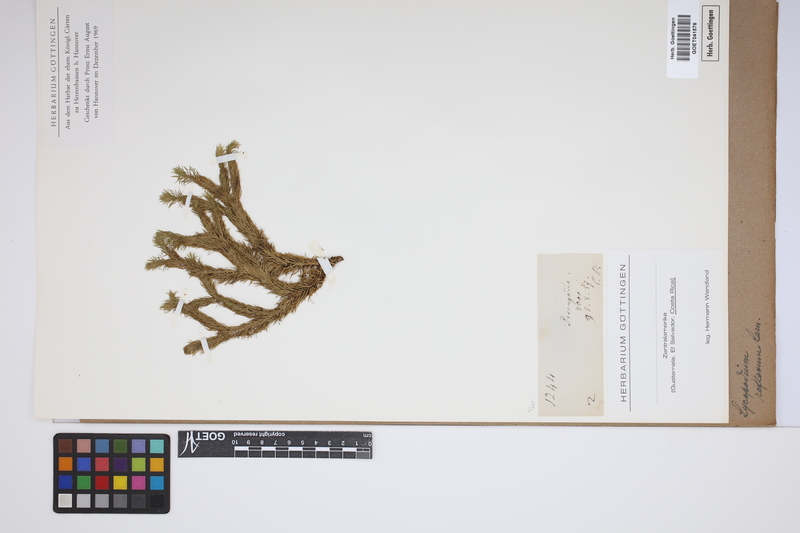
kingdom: Plantae
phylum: Tracheophyta
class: Lycopodiopsida
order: Lycopodiales
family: Lycopodiaceae
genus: Huperzia
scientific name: Huperzia lucidula
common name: Shining clubmoss
